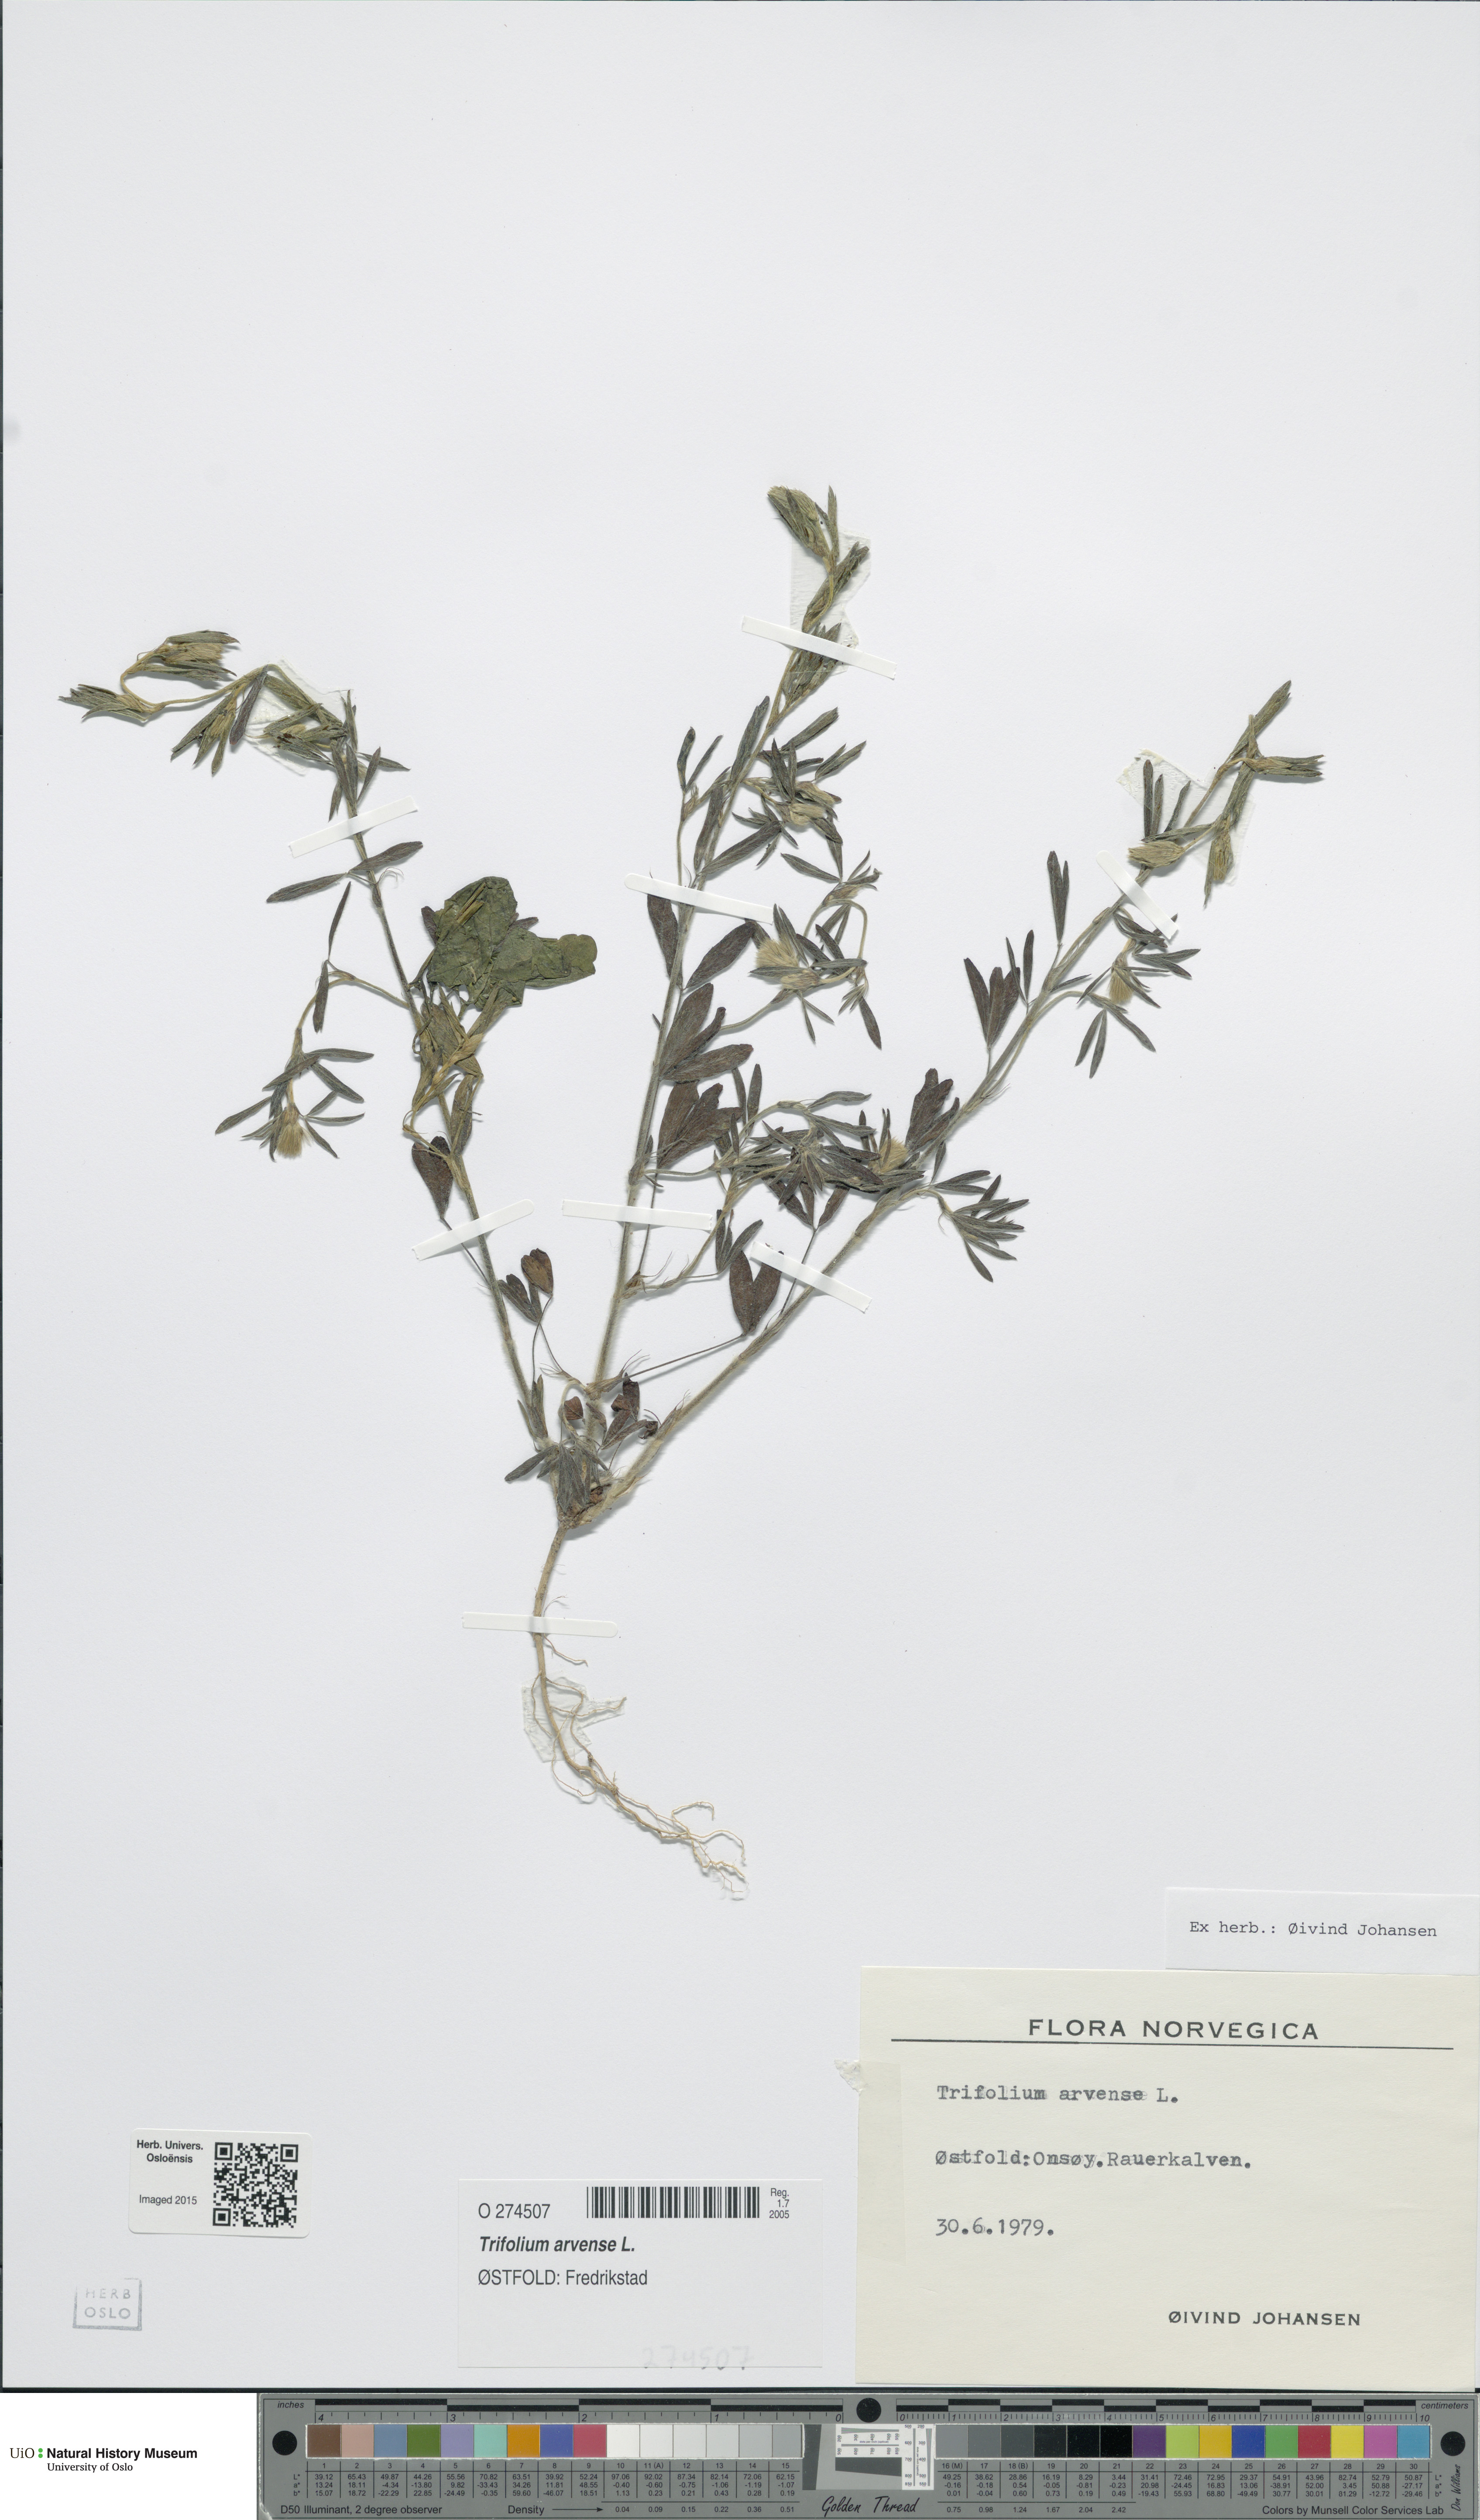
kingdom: Plantae
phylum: Tracheophyta
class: Magnoliopsida
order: Fabales
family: Fabaceae
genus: Trifolium
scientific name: Trifolium arvense
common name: Hare's-foot clover
